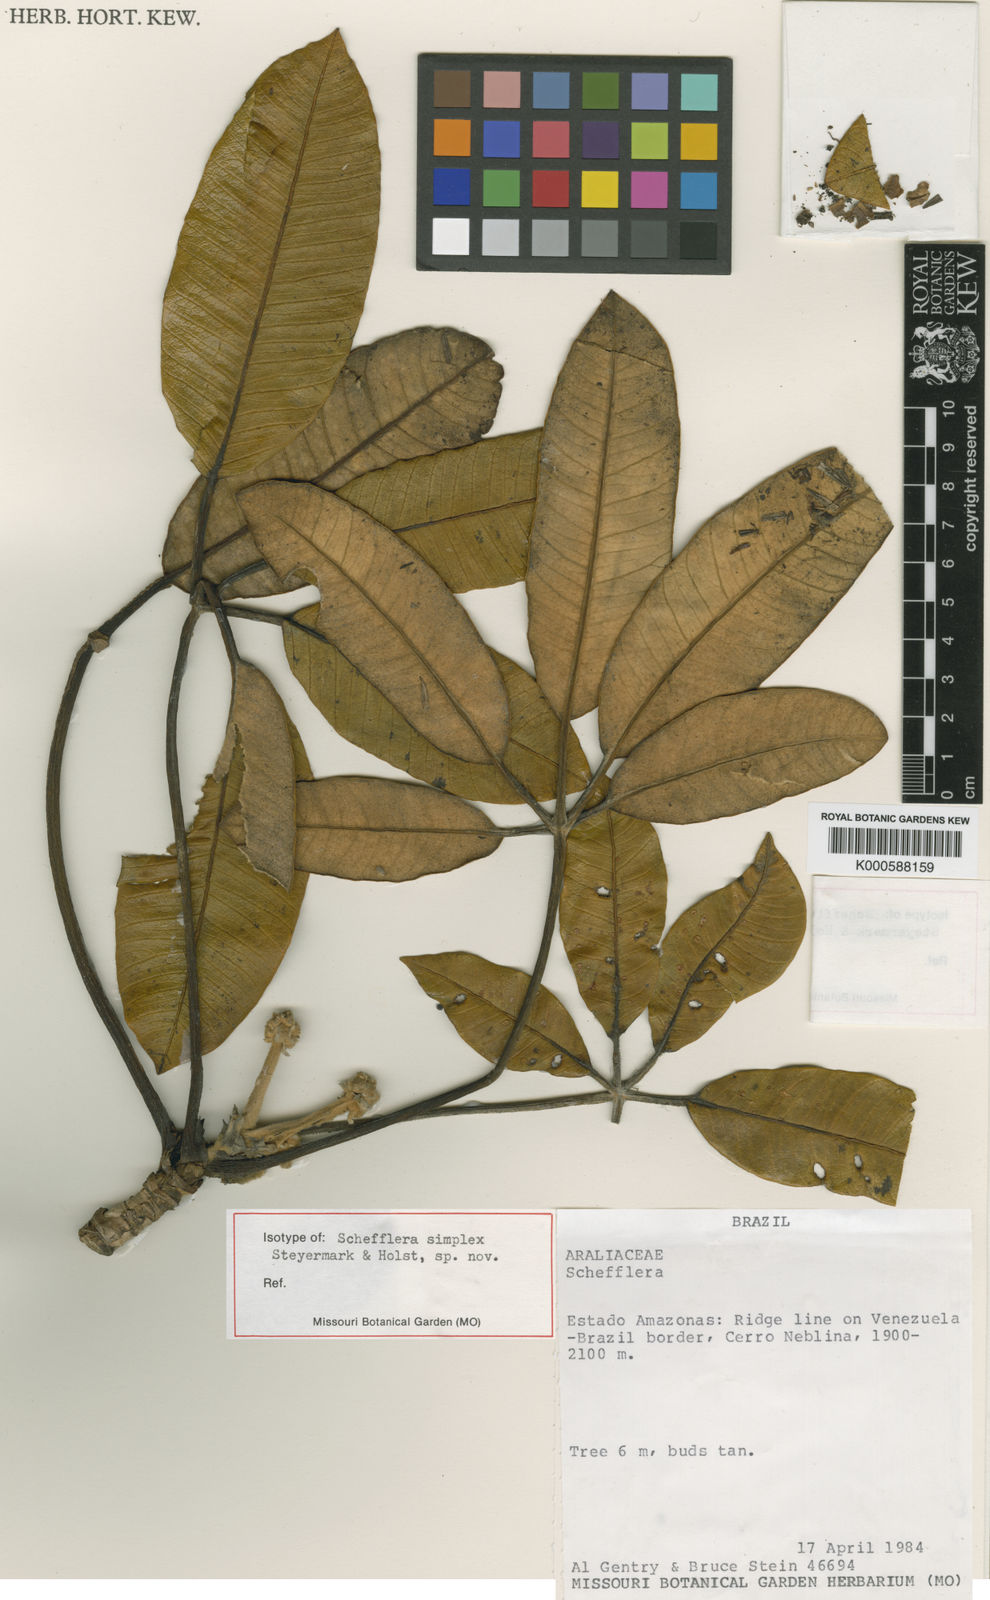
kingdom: Plantae
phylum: Tracheophyta
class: Magnoliopsida
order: Apiales
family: Araliaceae
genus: Crepinella
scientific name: Crepinella
